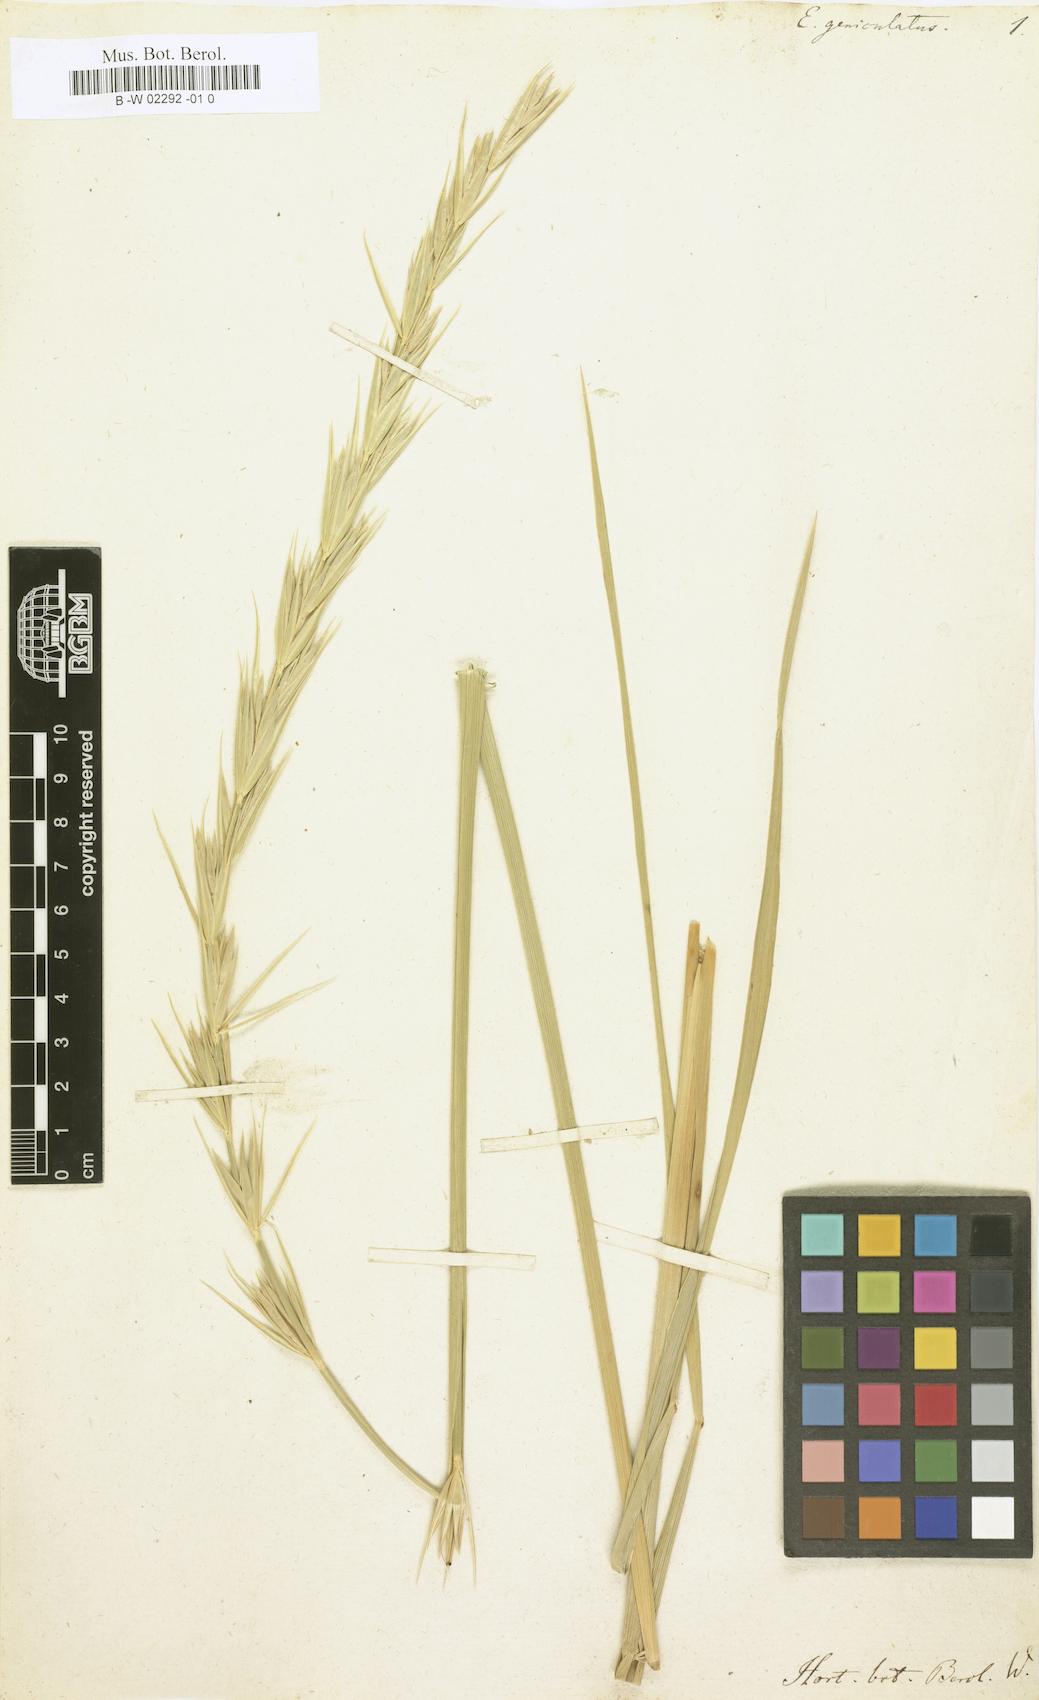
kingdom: Plantae
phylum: Tracheophyta
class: Liliopsida
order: Poales
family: Poaceae
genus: Leymus
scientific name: Leymus arenarius
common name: Lyme-grass
